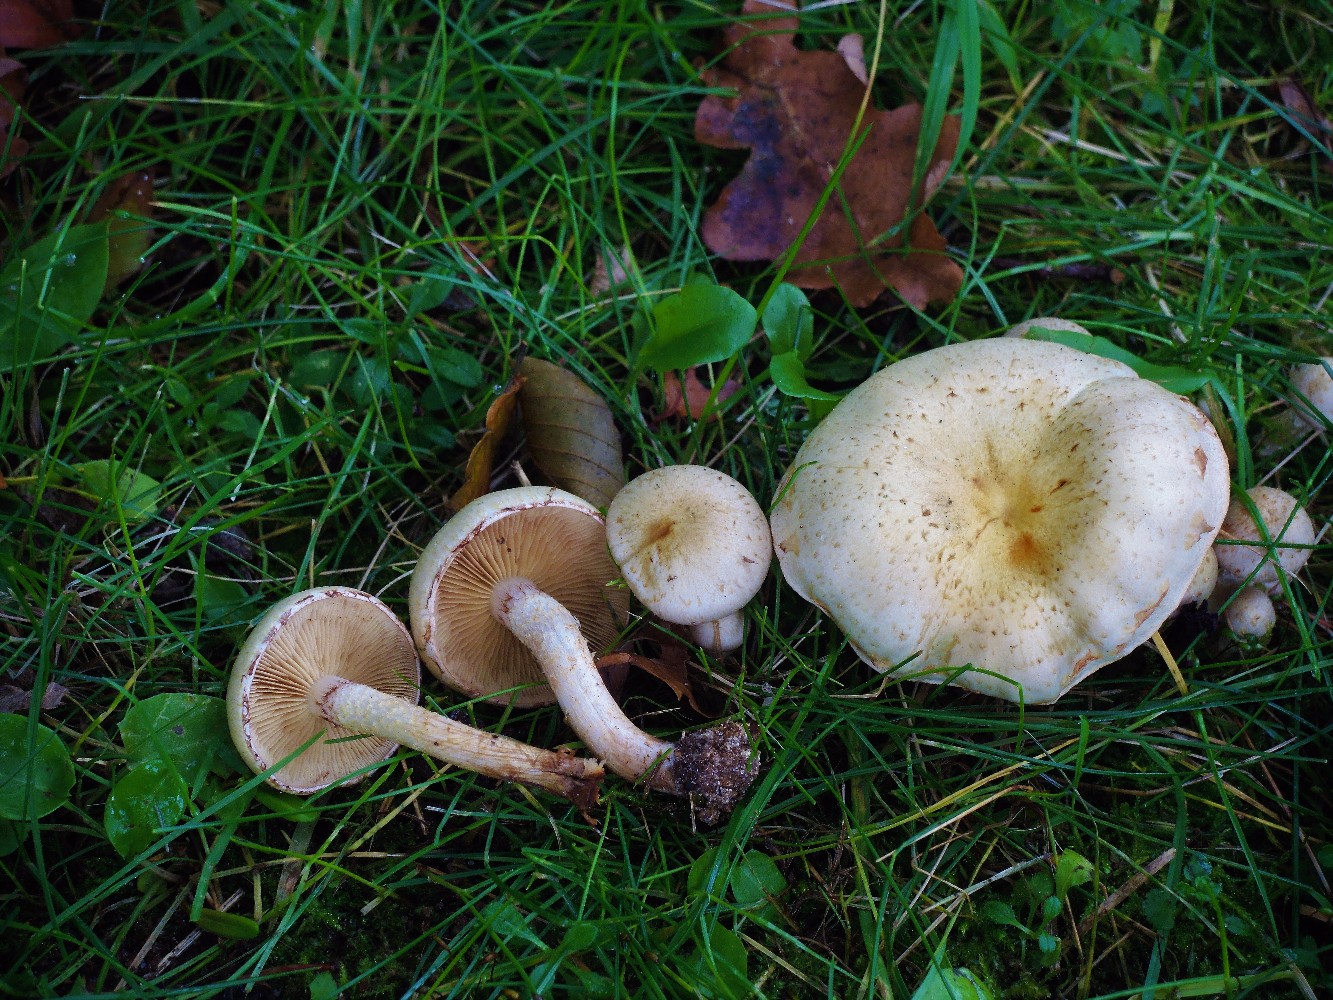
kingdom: Fungi
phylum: Basidiomycota
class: Agaricomycetes
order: Agaricales
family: Strophariaceae
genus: Pholiota
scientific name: Pholiota gummosa
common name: grøngul skælhat
